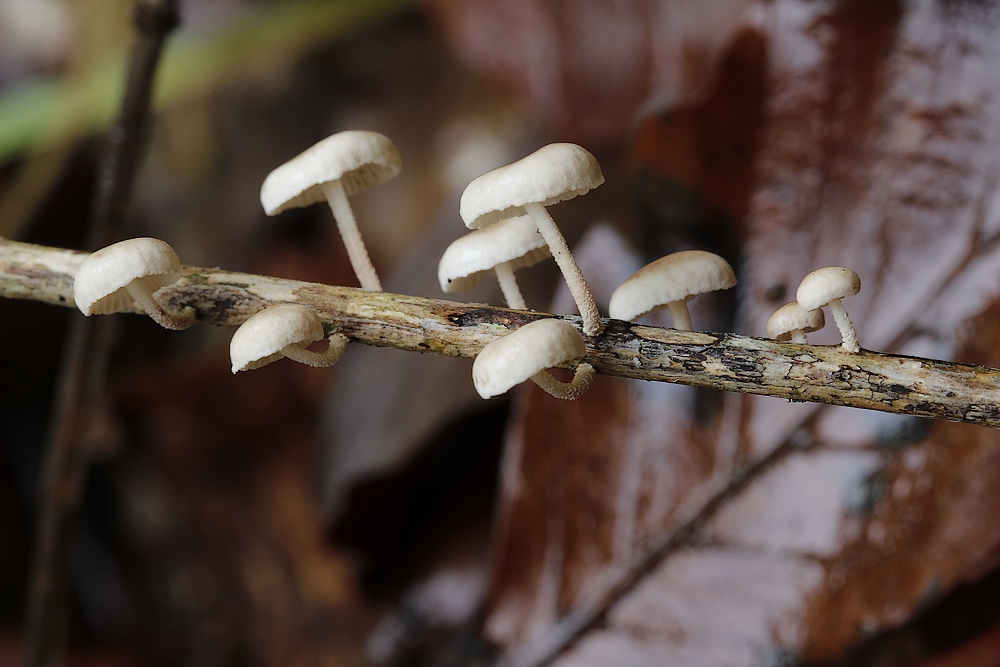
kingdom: Fungi
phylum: Basidiomycota
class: Agaricomycetes
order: Agaricales
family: Omphalotaceae
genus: Collybiopsis
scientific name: Collybiopsis ramealis
